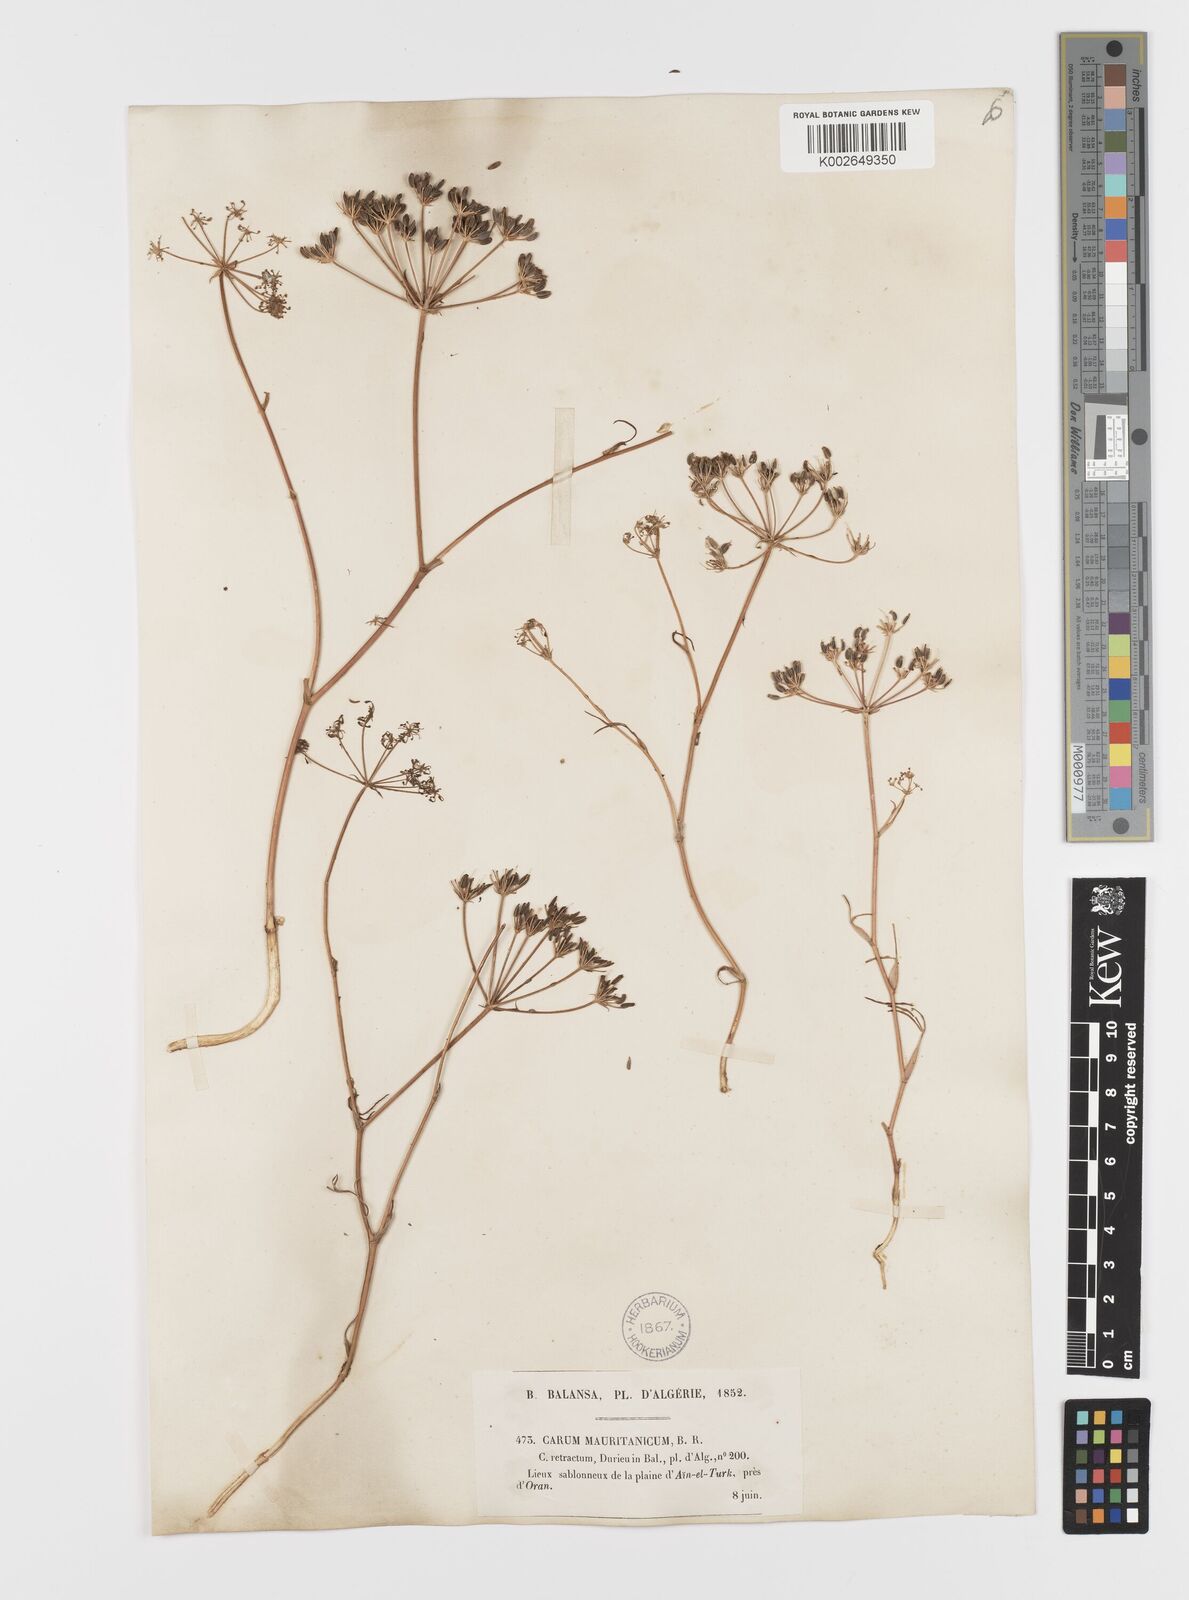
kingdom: Plantae
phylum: Tracheophyta
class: Magnoliopsida
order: Apiales
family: Apiaceae
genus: Bunium
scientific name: Bunium fontanesii
